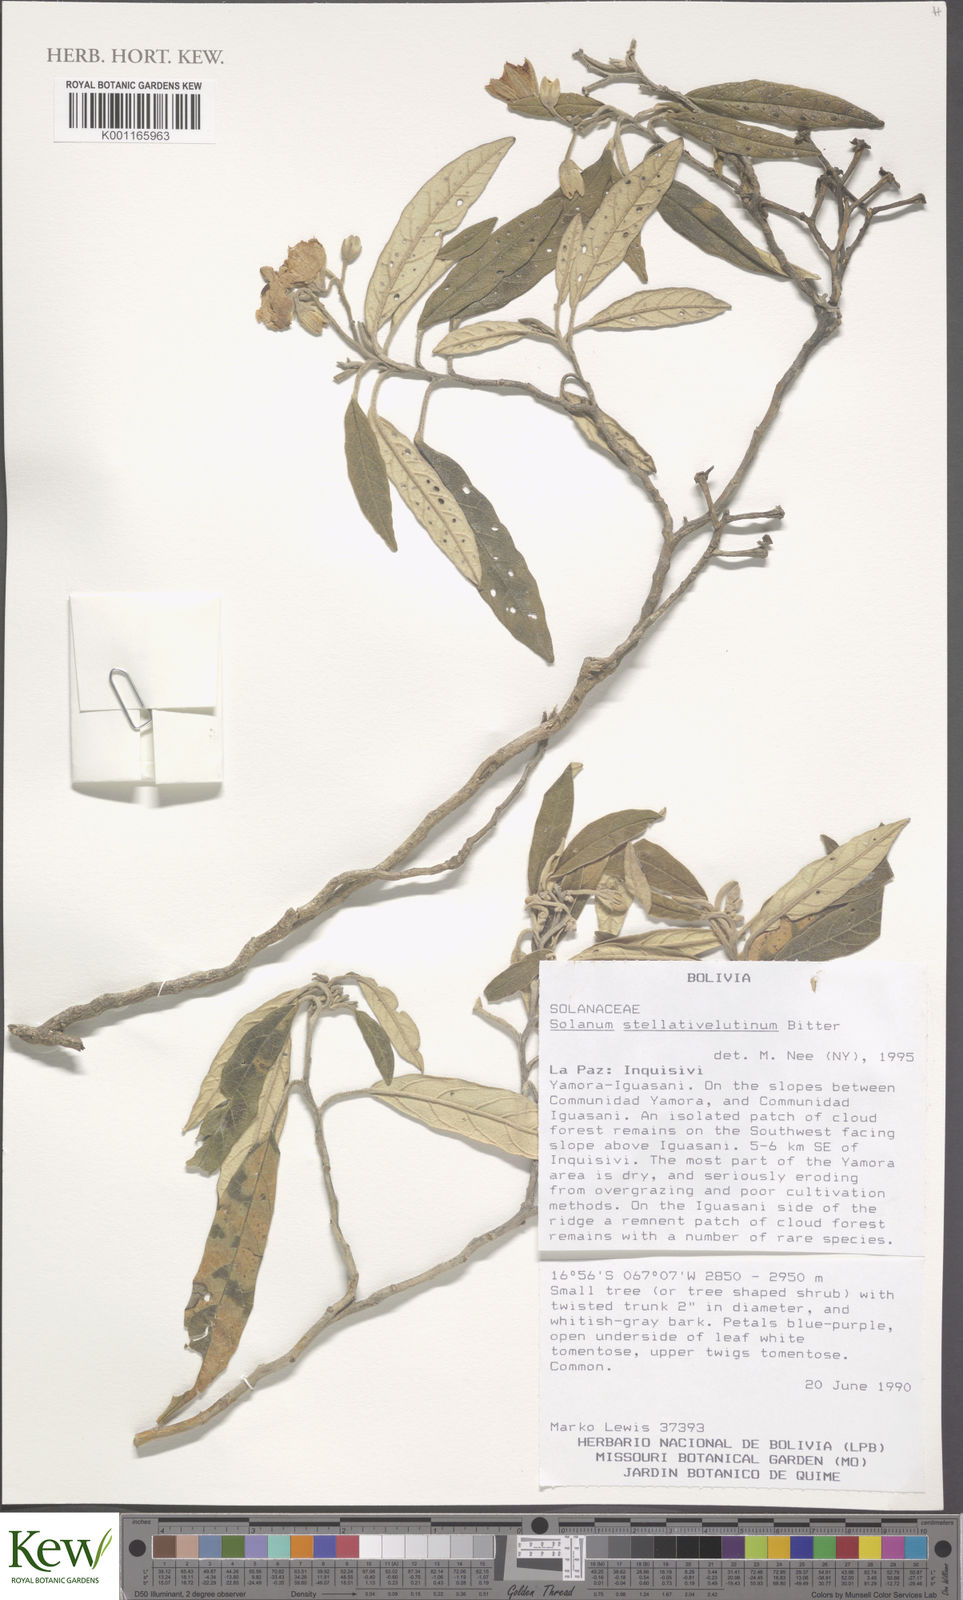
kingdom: Plantae
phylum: Tracheophyta
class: Magnoliopsida
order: Solanales
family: Solanaceae
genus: Solanum
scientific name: Solanum stellativelutinum
